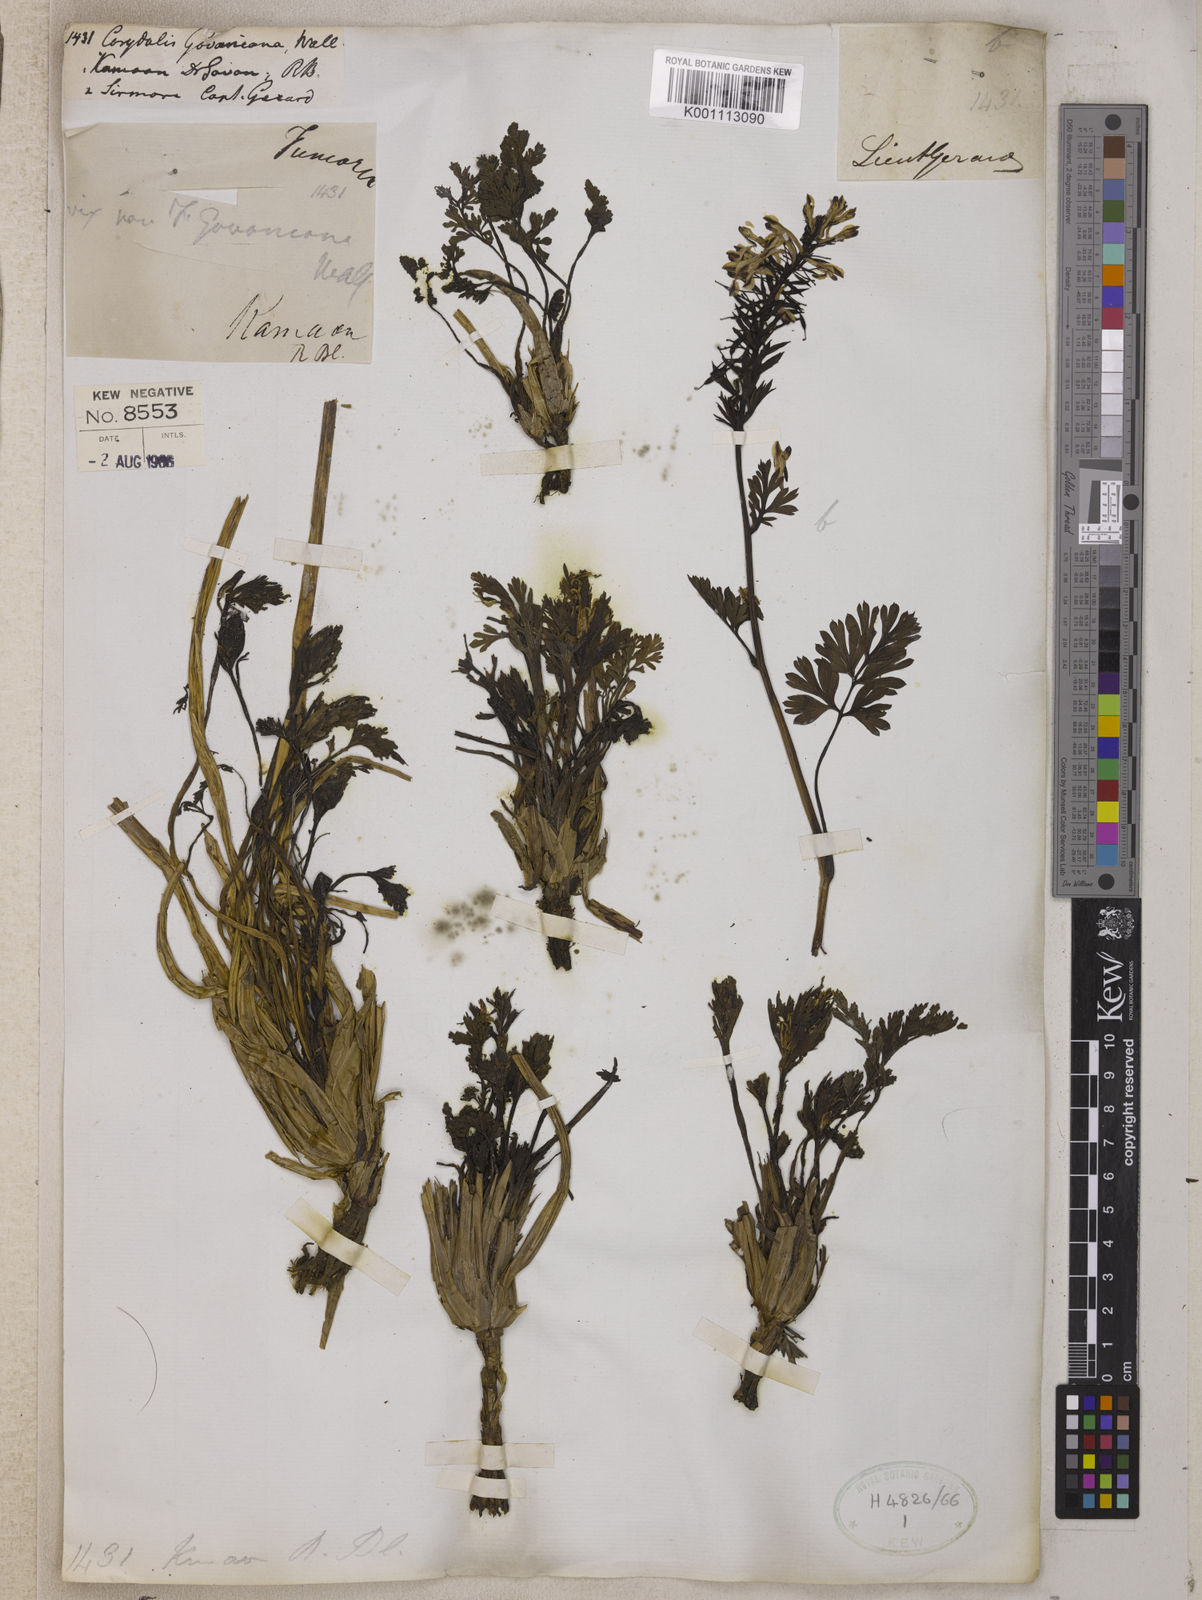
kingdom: Plantae
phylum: Tracheophyta
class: Magnoliopsida
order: Ranunculales
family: Papaveraceae
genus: Corydalis
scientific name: Corydalis govaniana
